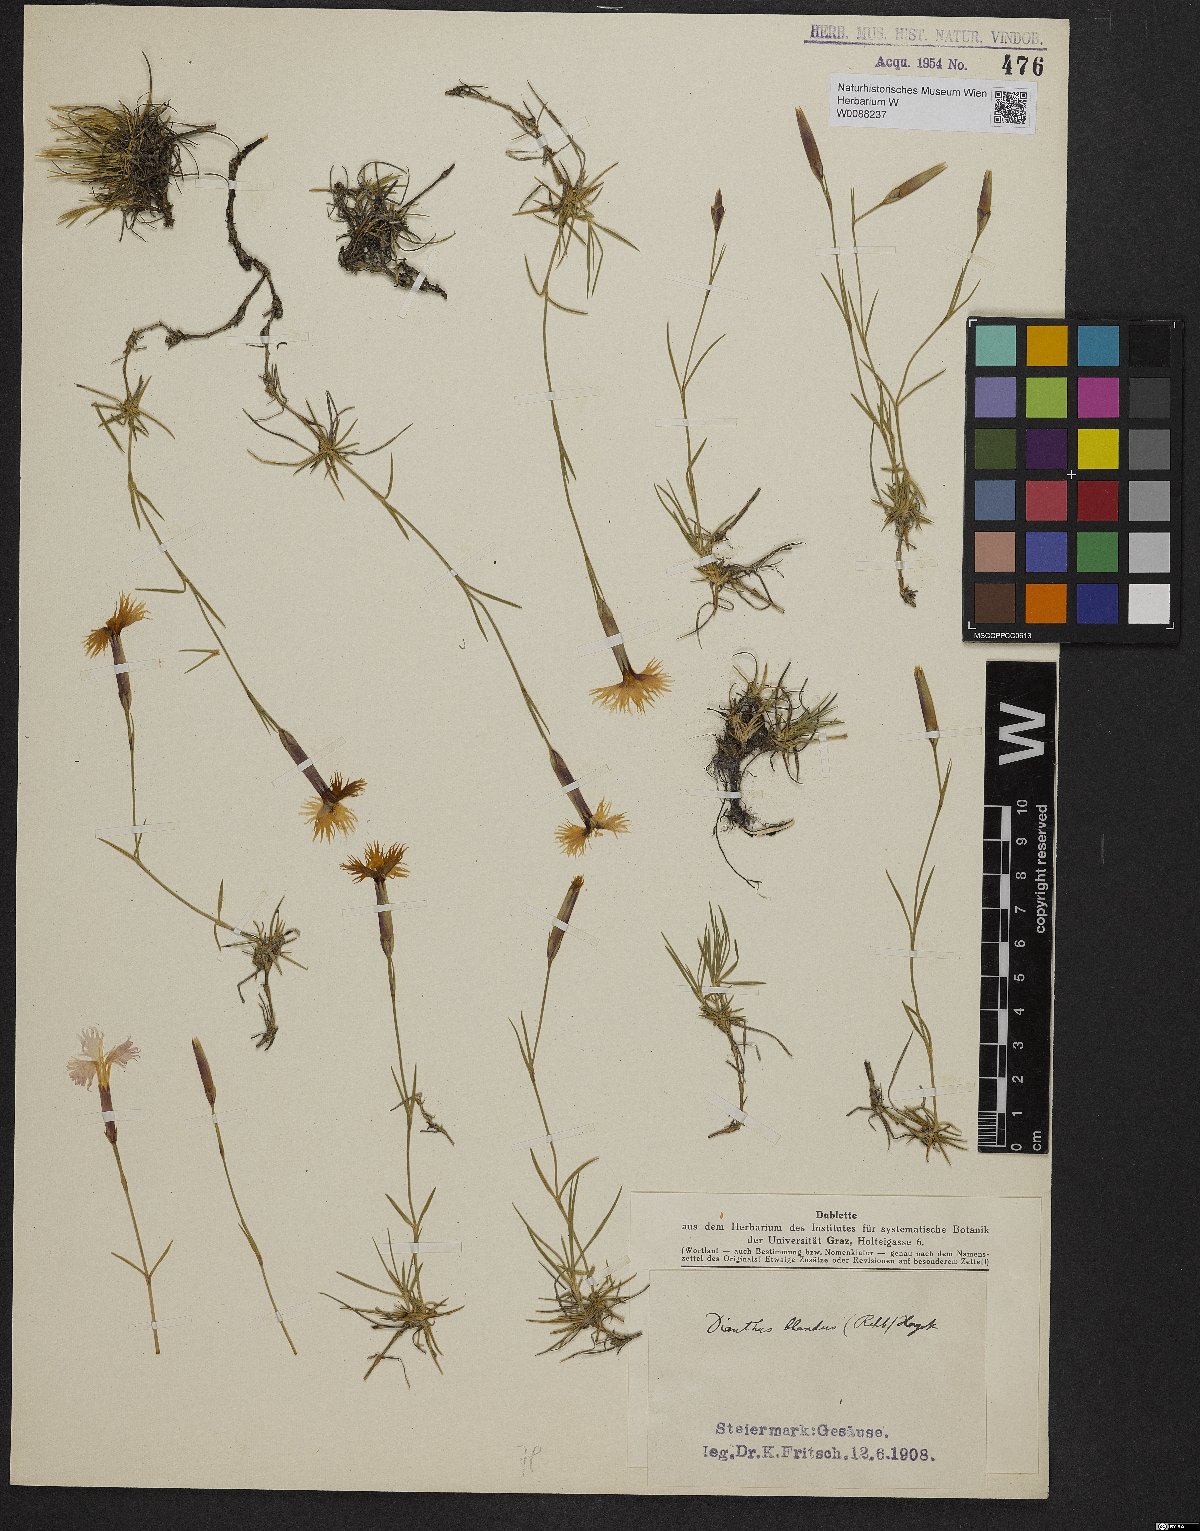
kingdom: Plantae
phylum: Tracheophyta
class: Magnoliopsida
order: Caryophyllales
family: Caryophyllaceae
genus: Dianthus
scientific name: Dianthus plumarius
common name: Pink
